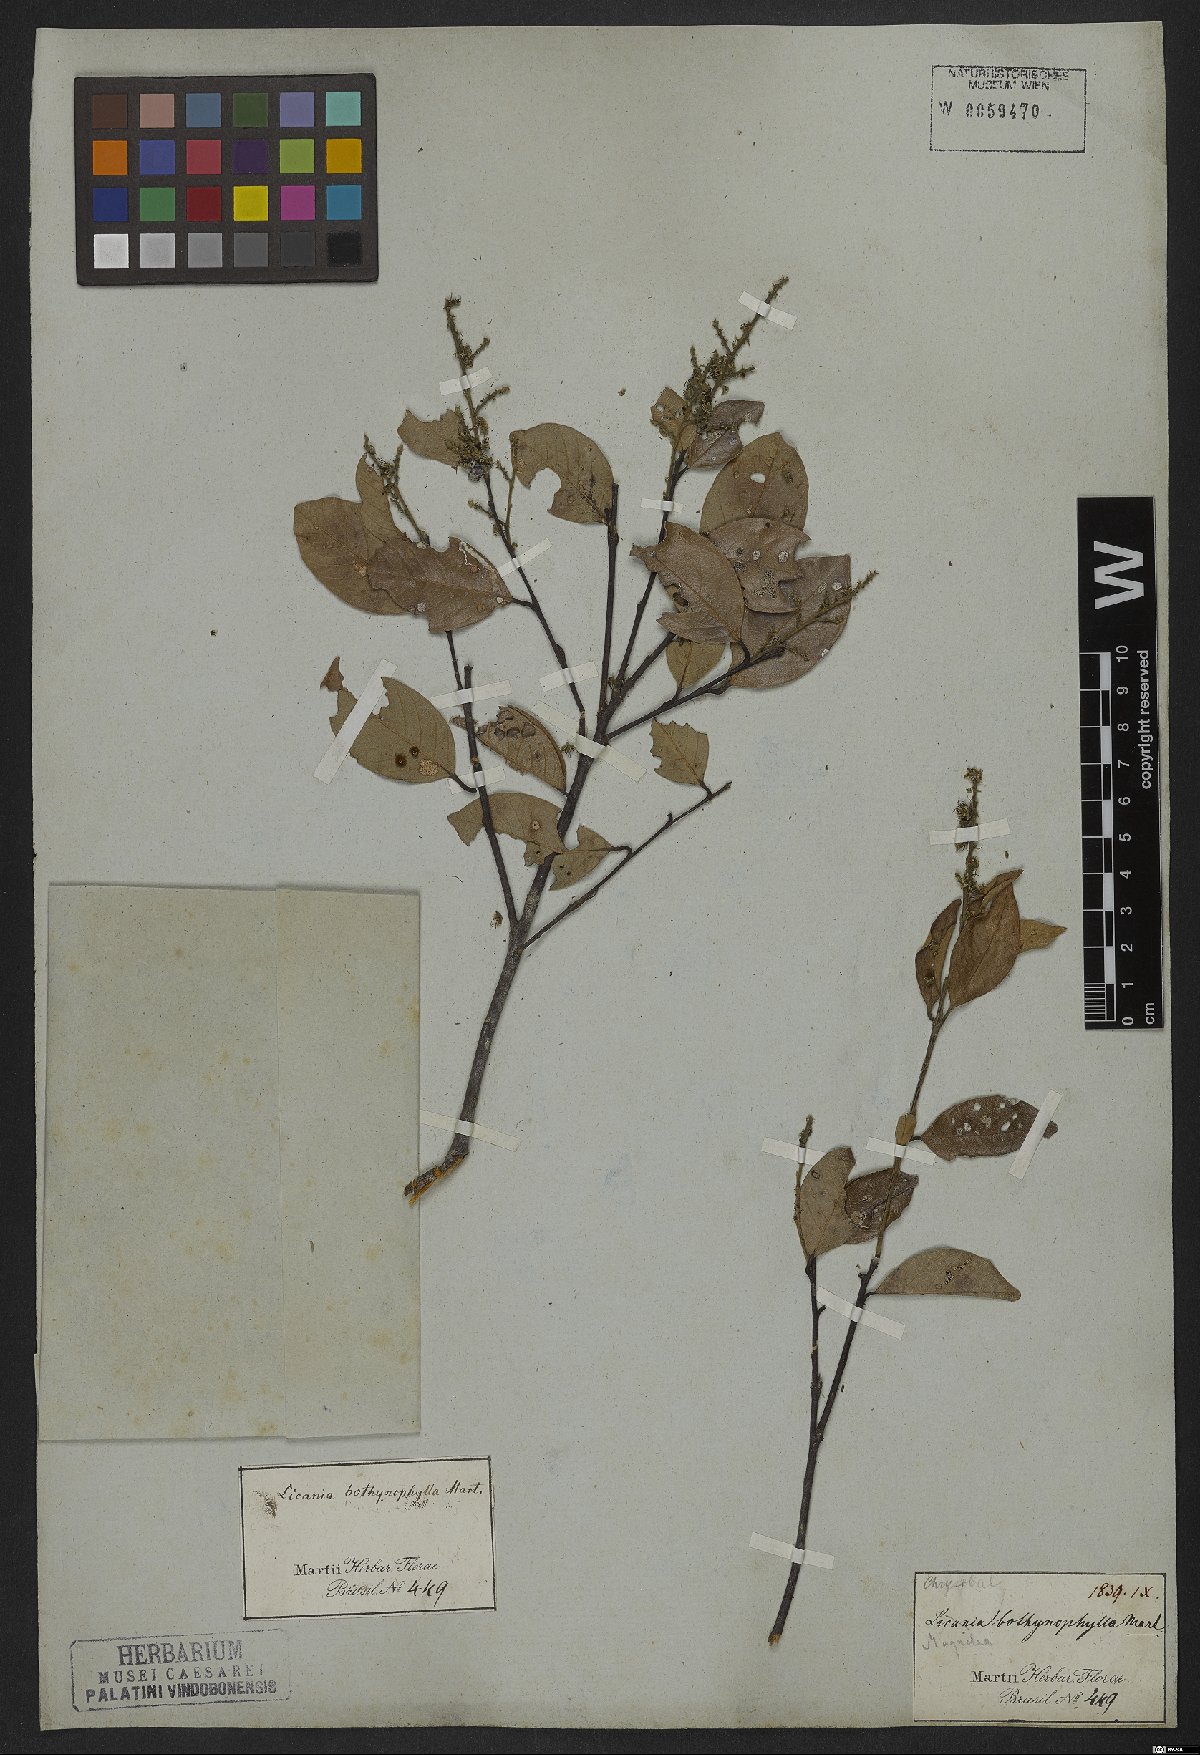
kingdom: Plantae
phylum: Tracheophyta
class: Magnoliopsida
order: Malpighiales
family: Chrysobalanaceae
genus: Leptobalanus
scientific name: Leptobalanus octandrus
